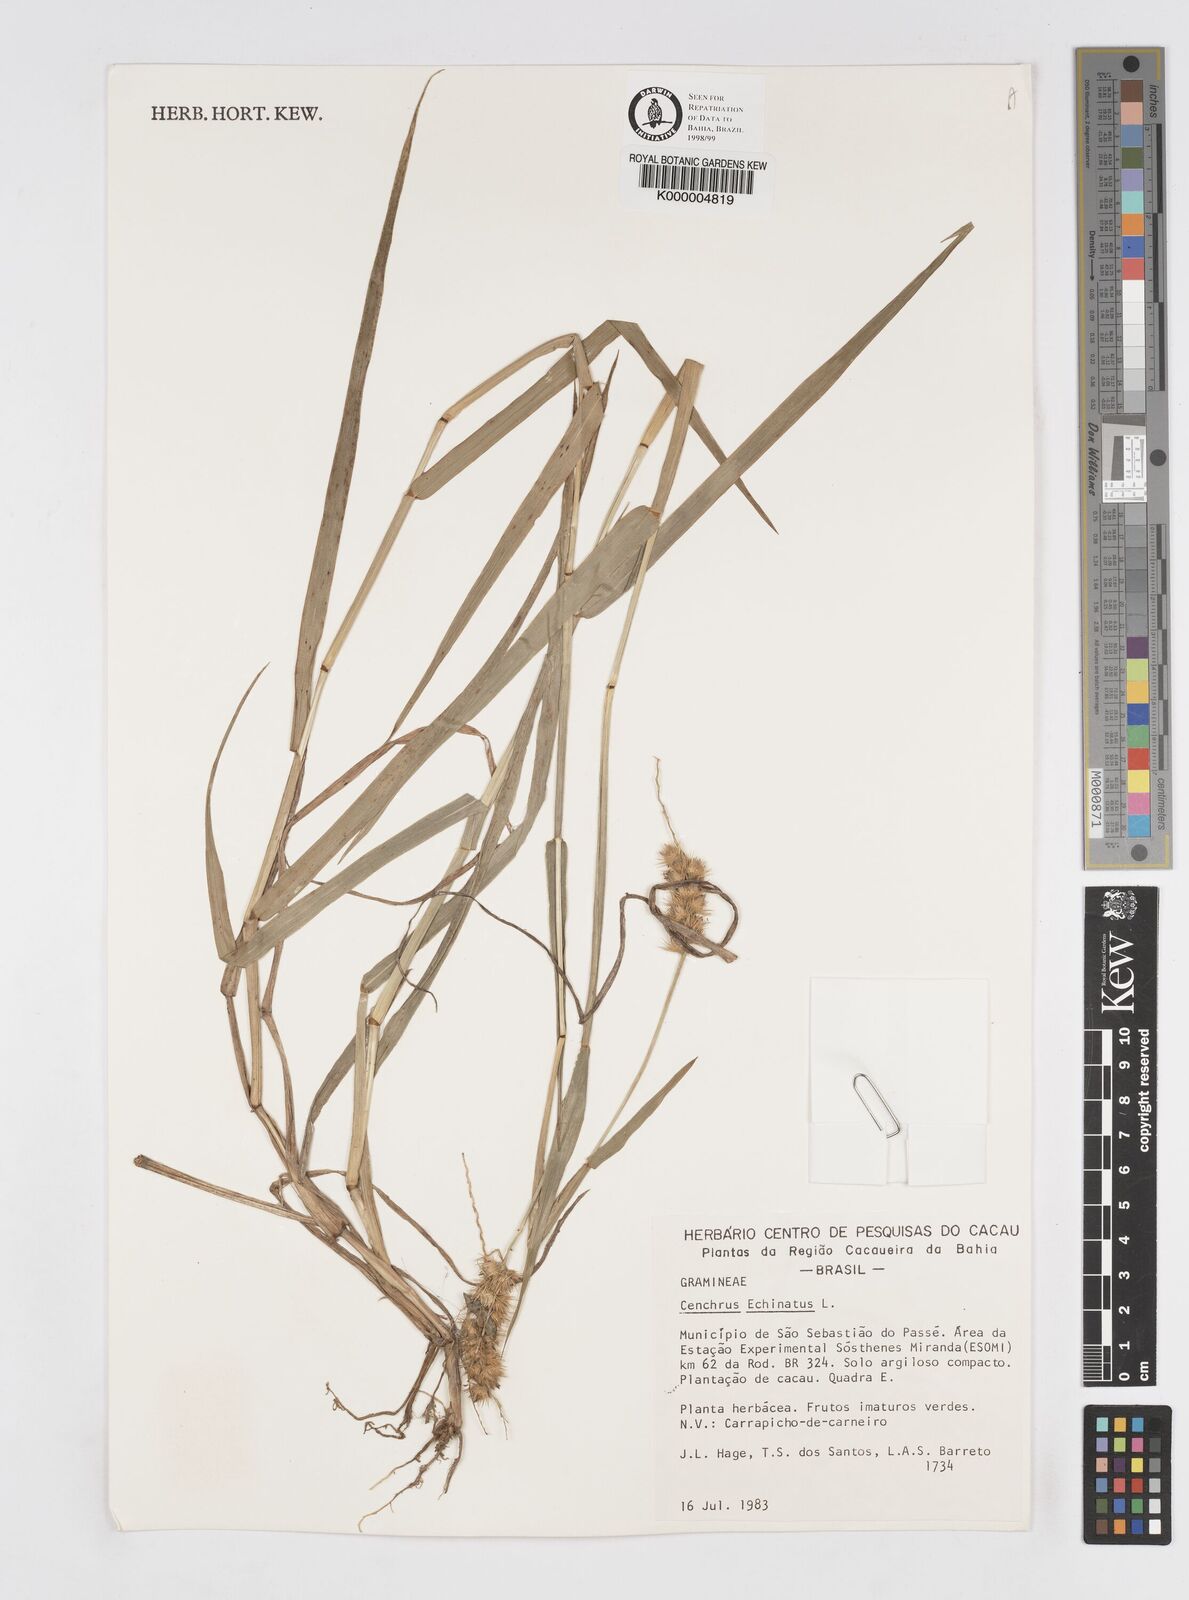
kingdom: Plantae
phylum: Tracheophyta
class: Liliopsida
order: Poales
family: Poaceae
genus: Cenchrus
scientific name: Cenchrus echinatus
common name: Southern sandbur
